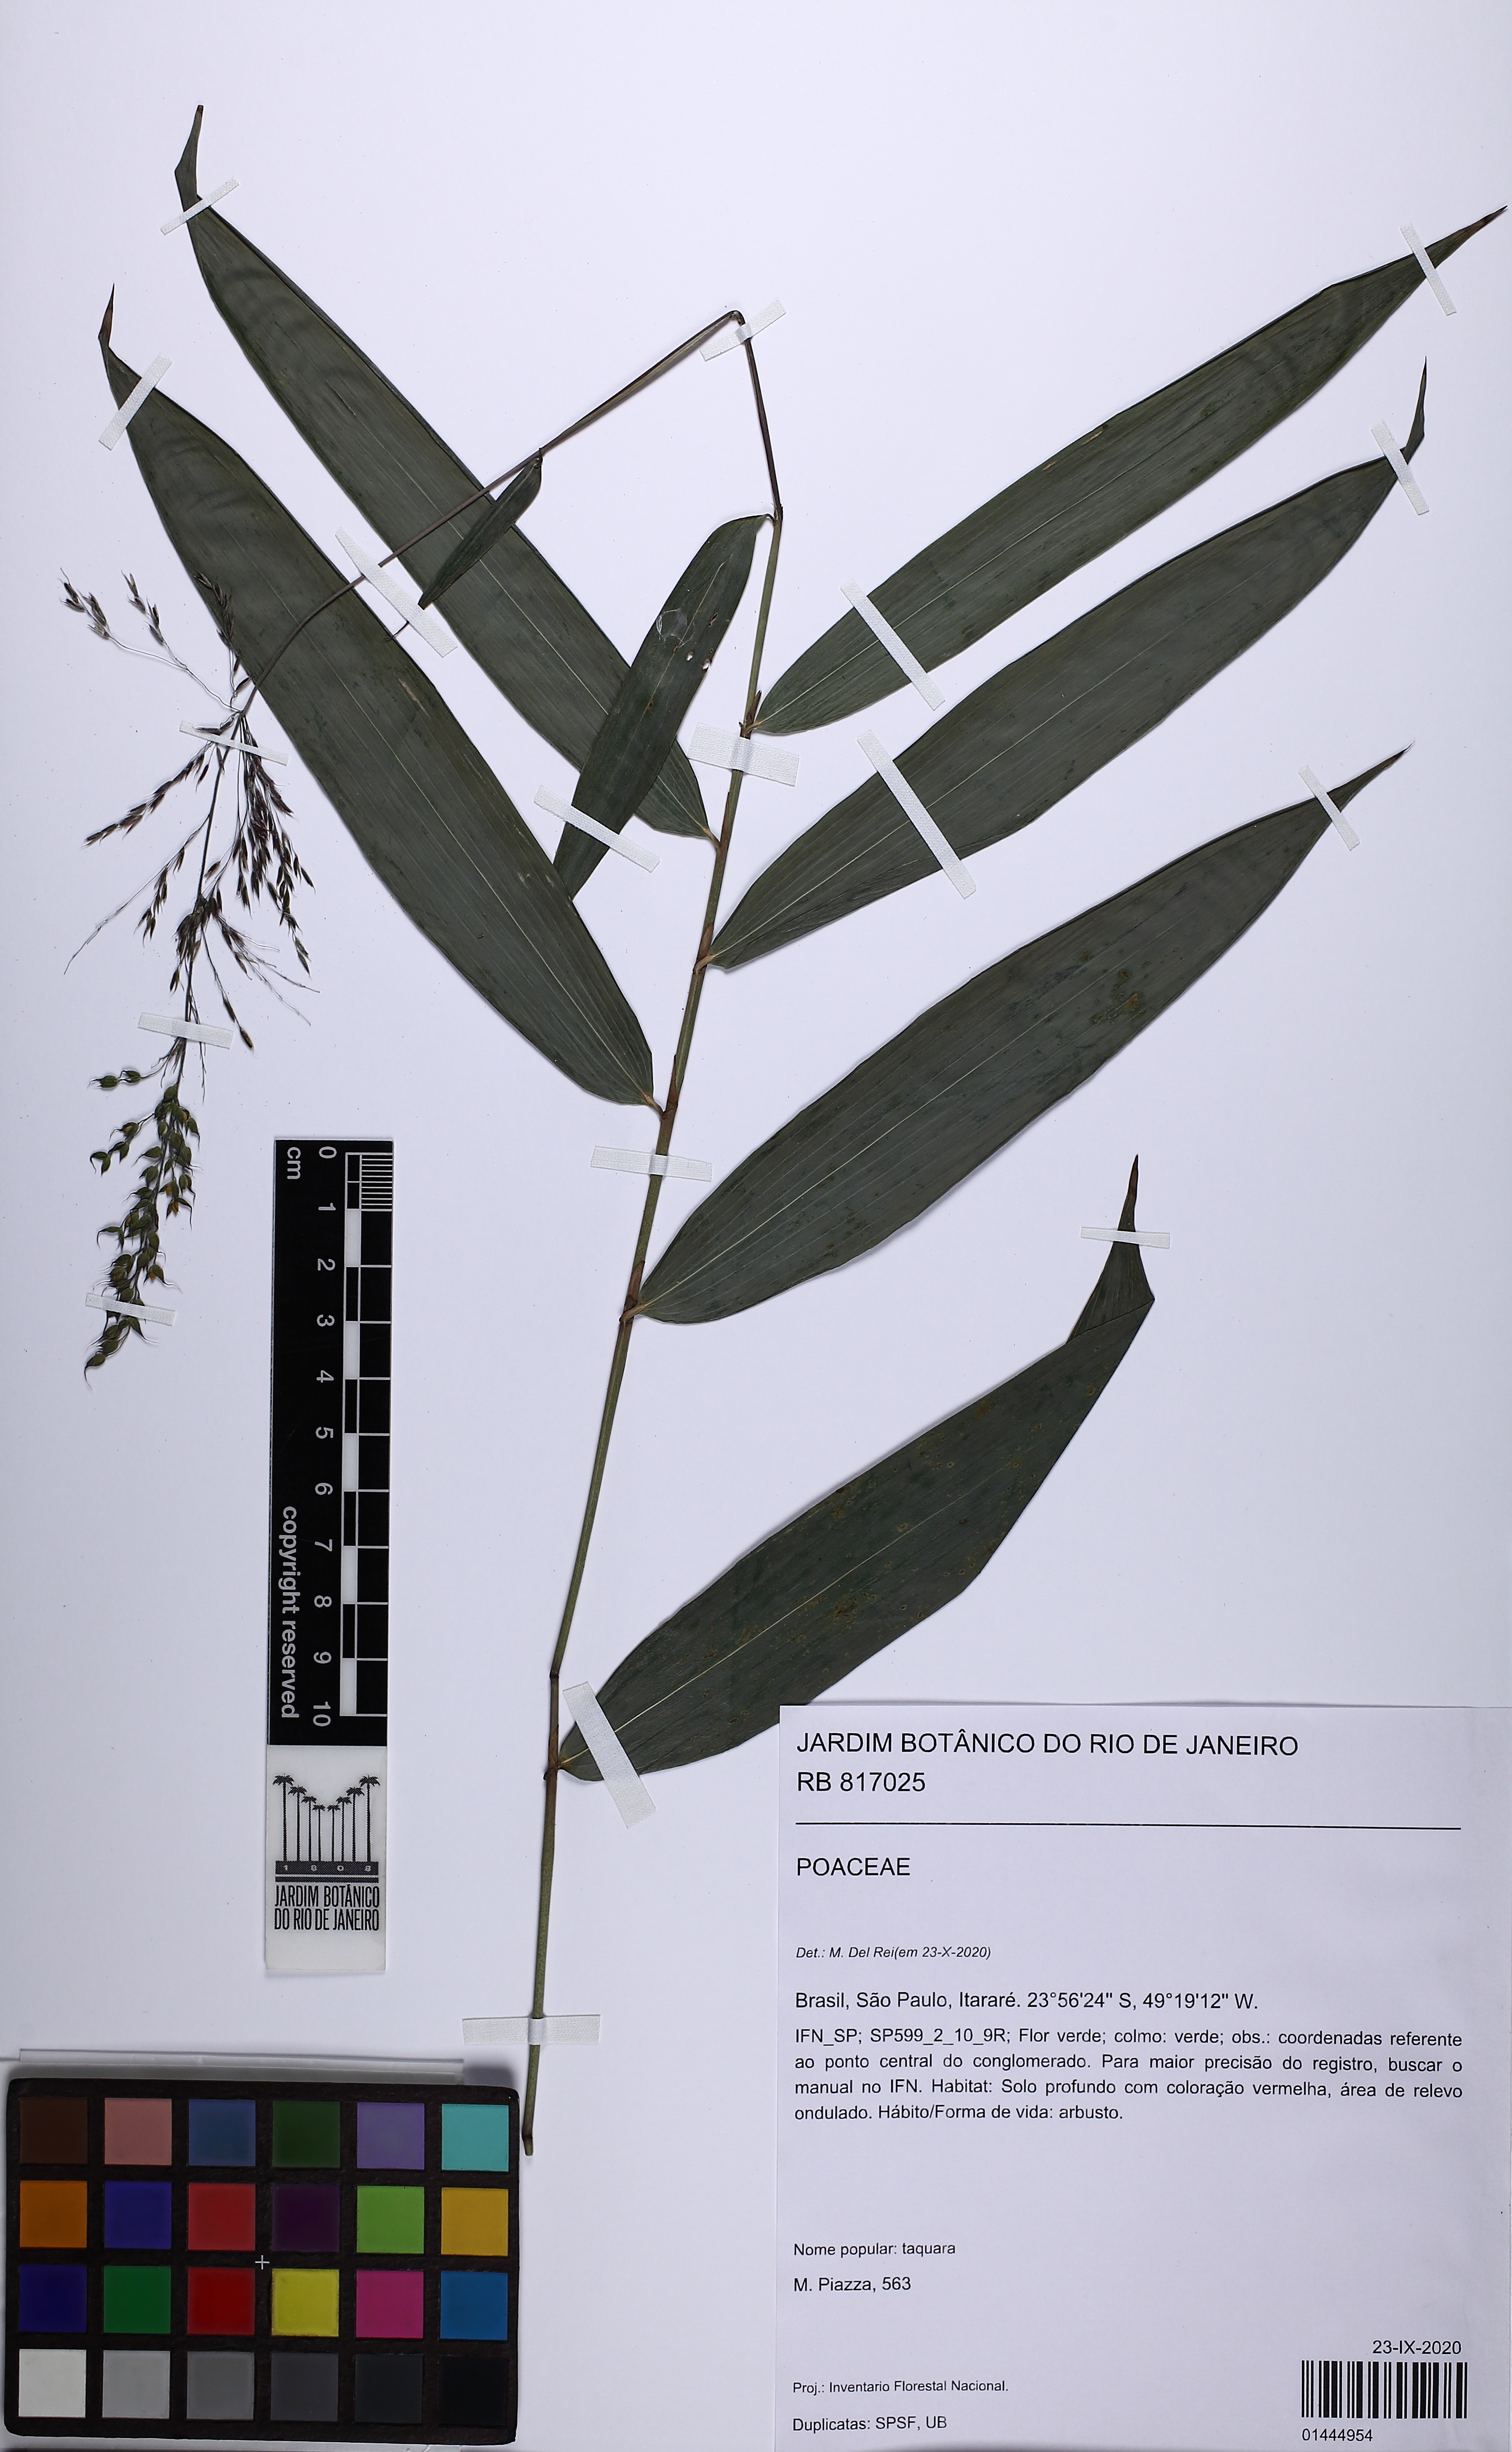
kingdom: Plantae
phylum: Tracheophyta
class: Liliopsida
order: Poales
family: Poaceae
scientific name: Poaceae
